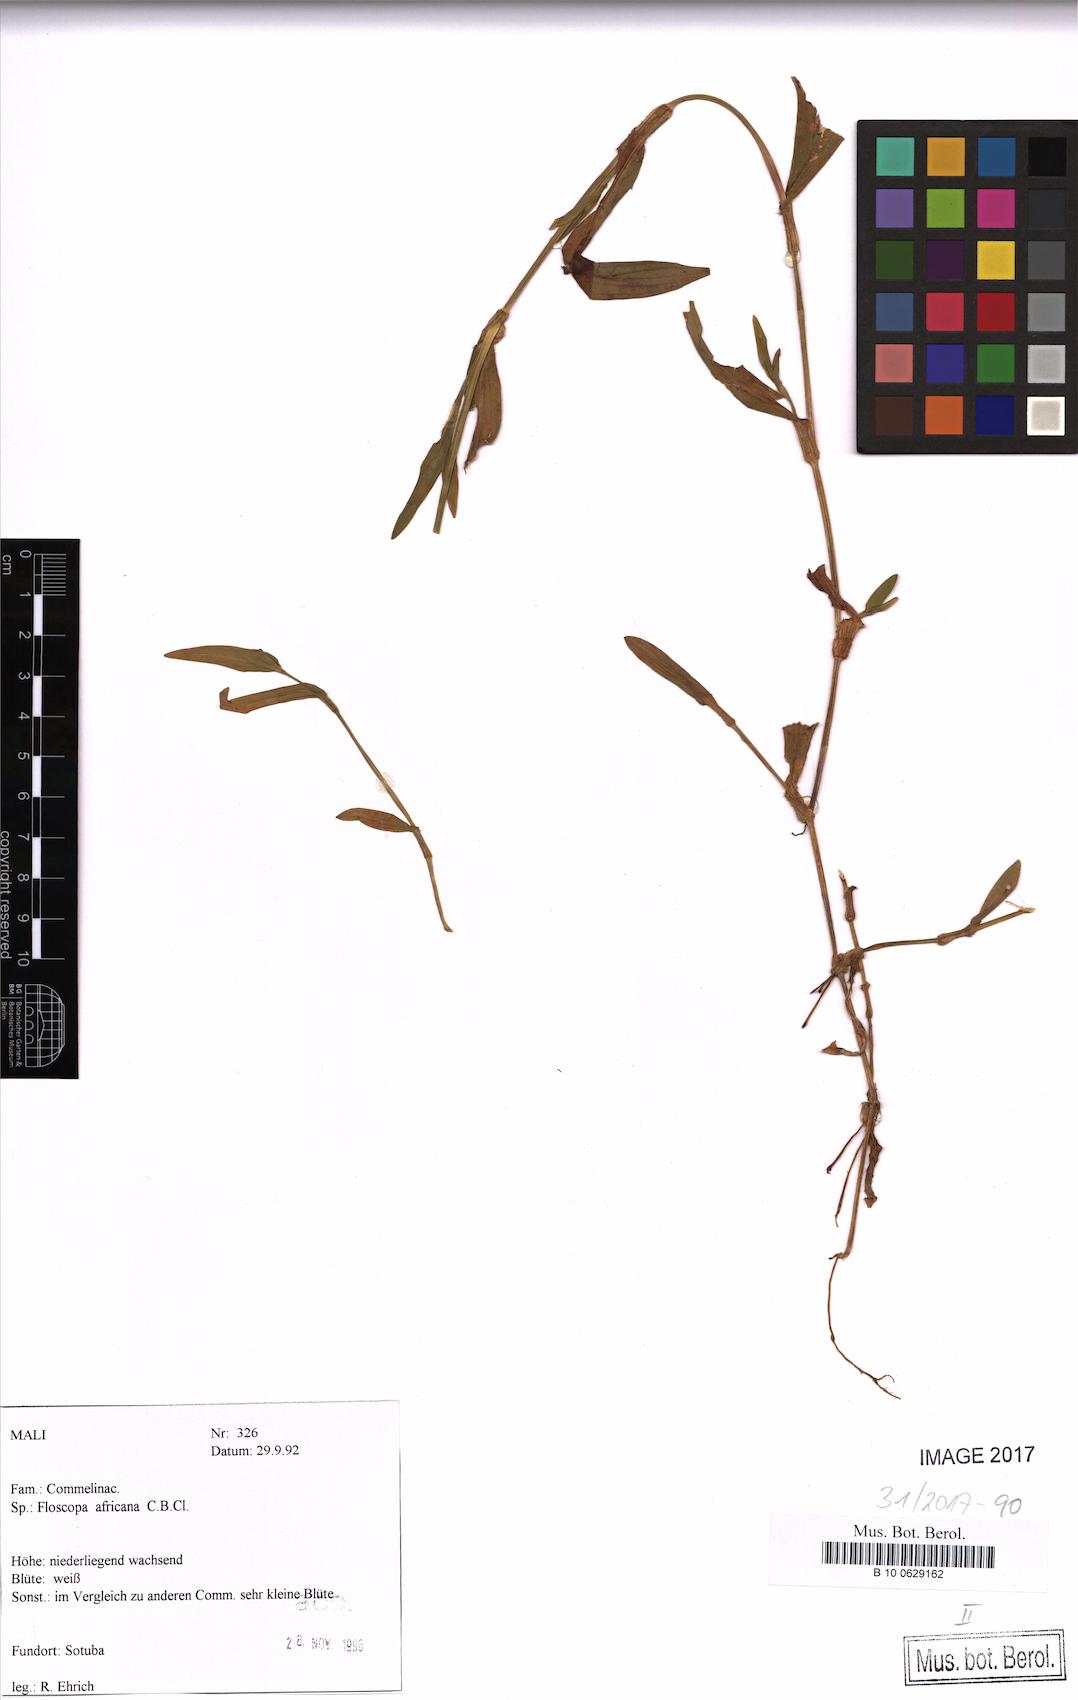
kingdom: Plantae
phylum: Tracheophyta
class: Liliopsida
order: Commelinales
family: Commelinaceae
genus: Floscopa
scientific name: Floscopa africana
